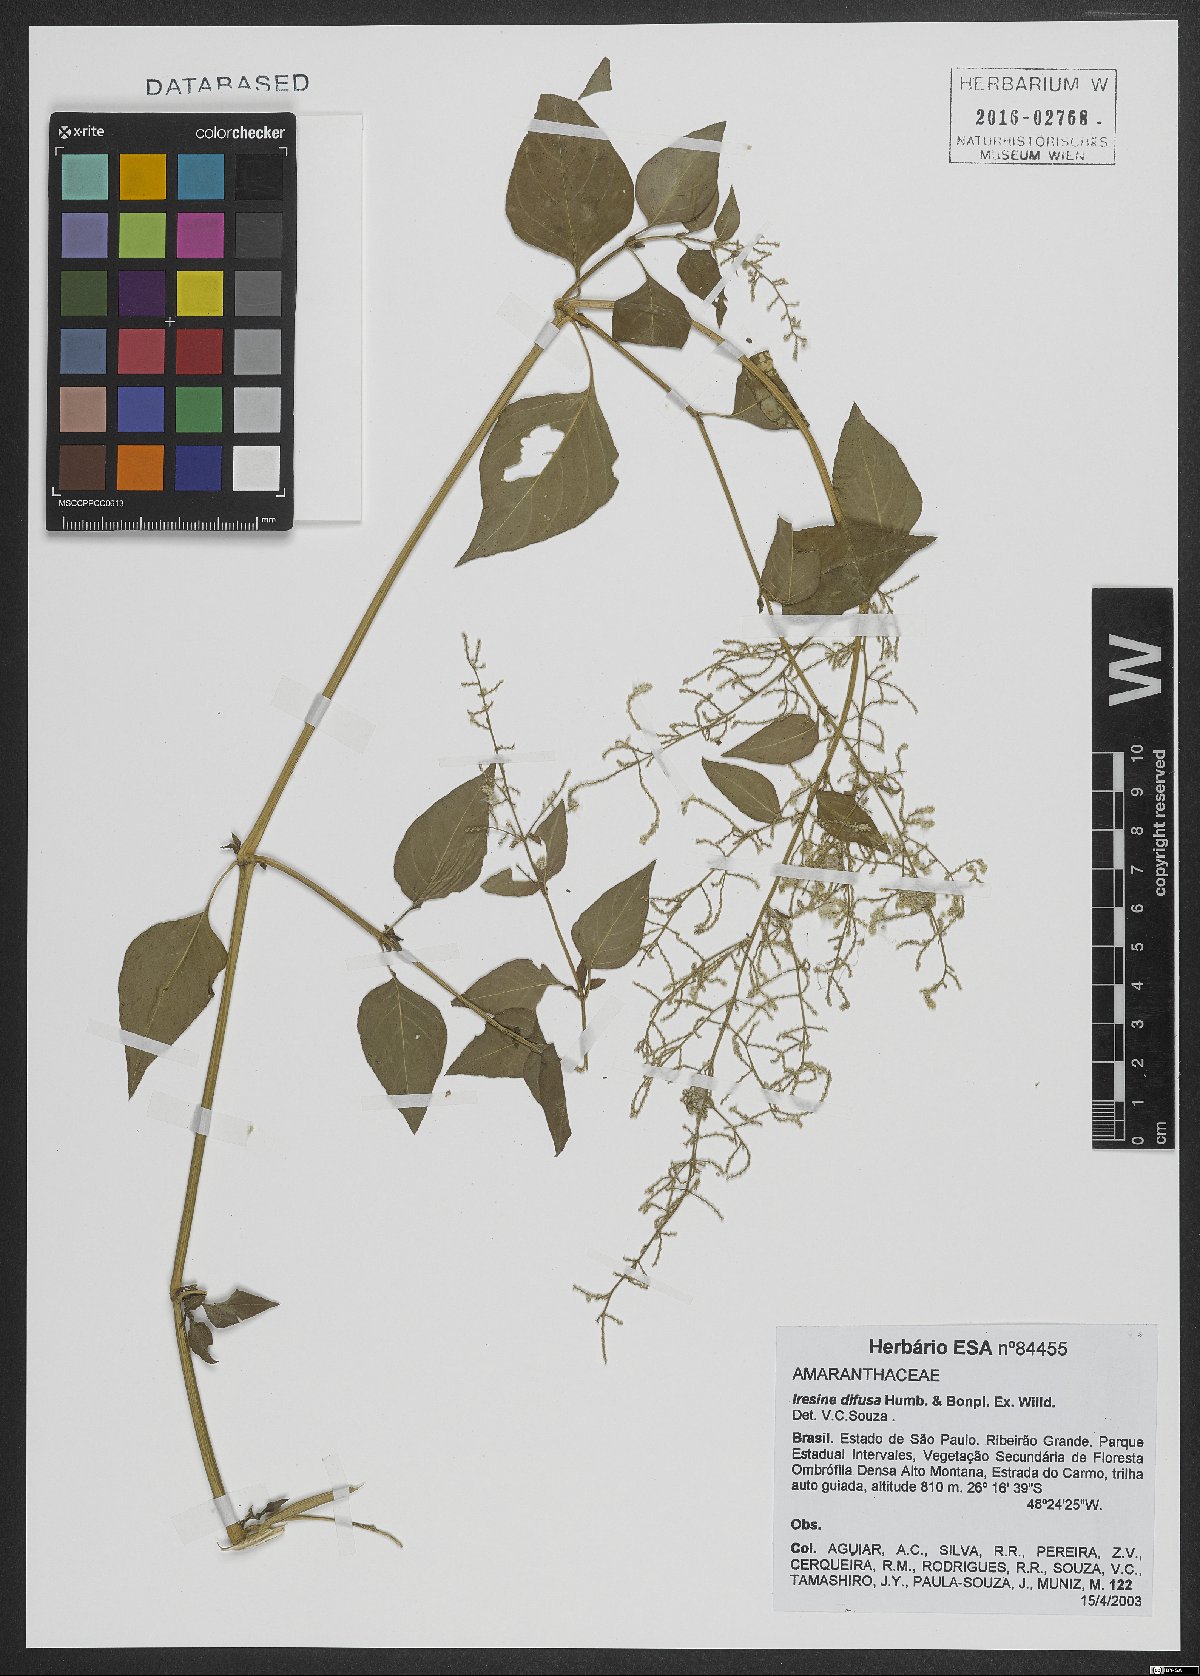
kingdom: Plantae
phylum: Tracheophyta
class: Magnoliopsida
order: Caryophyllales
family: Amaranthaceae
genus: Iresine
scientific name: Iresine diffusa
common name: Juba's-bush
